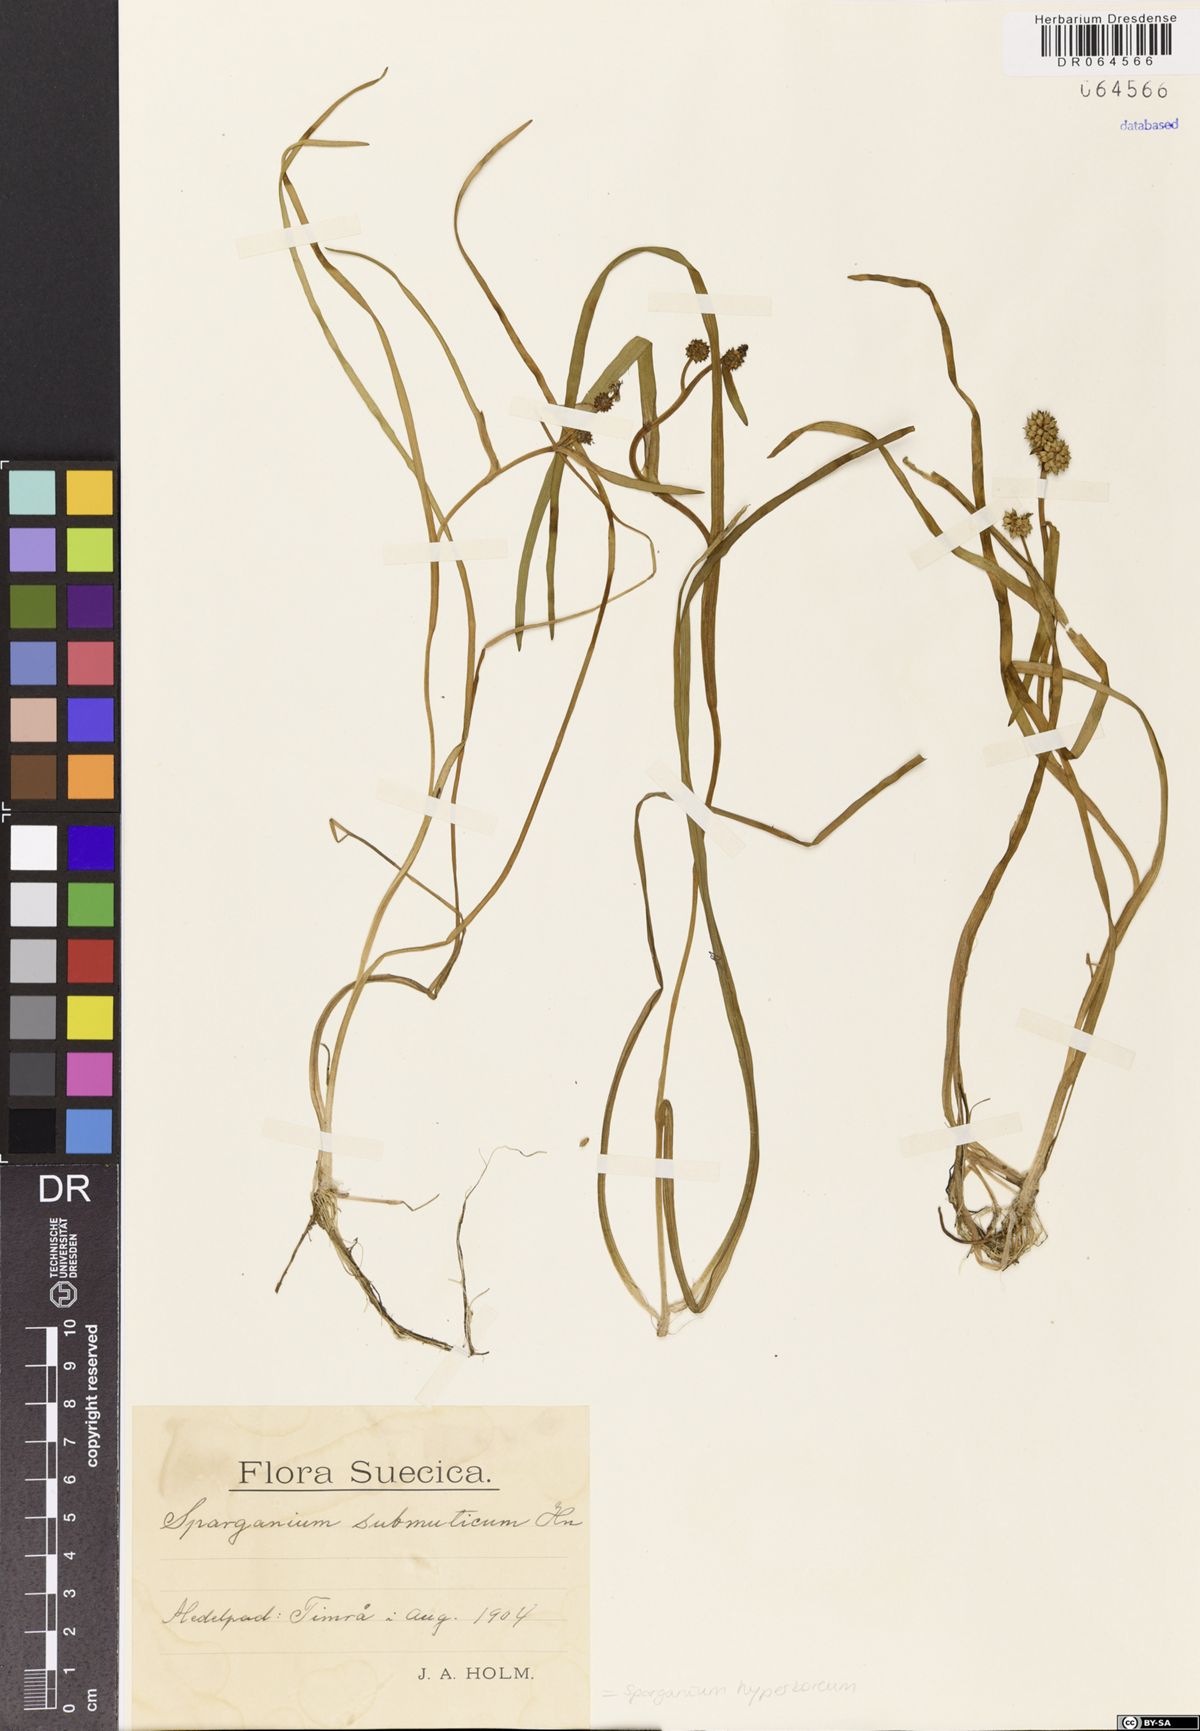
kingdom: Plantae
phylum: Tracheophyta
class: Liliopsida
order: Poales
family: Typhaceae
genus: Sparganium
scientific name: Sparganium hyperboreum
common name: Arctic burreed
